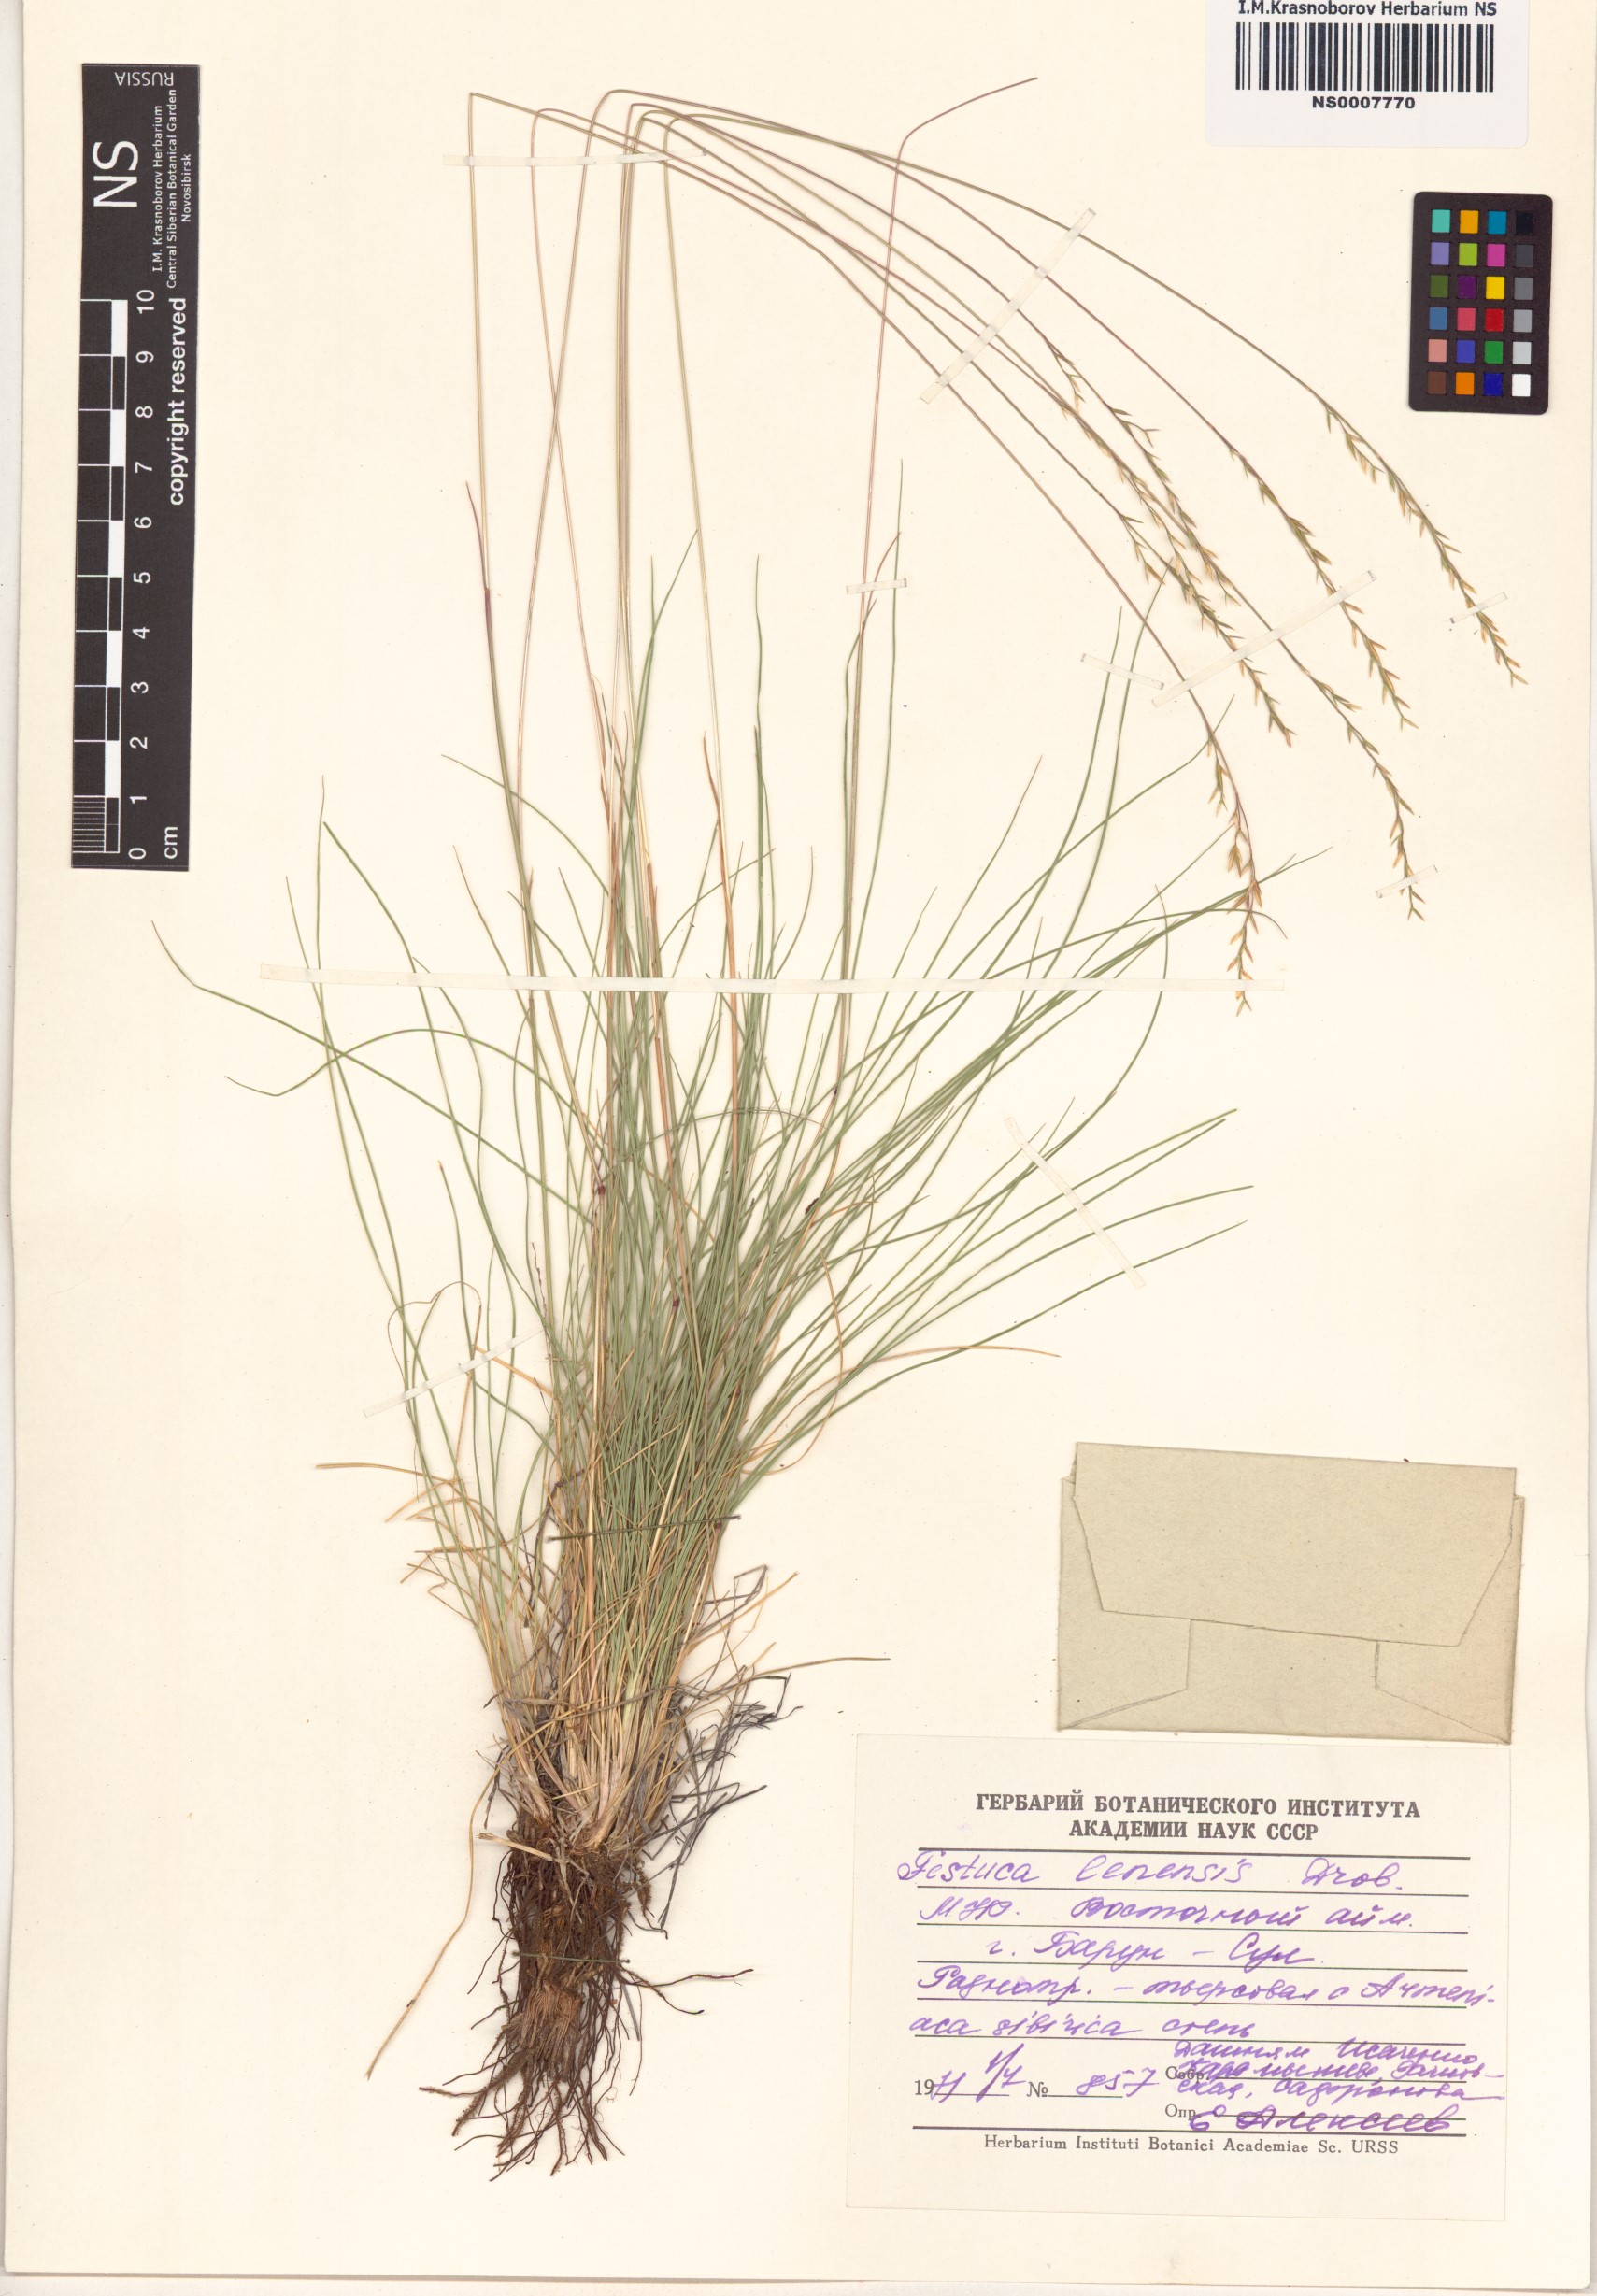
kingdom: Plantae
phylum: Tracheophyta
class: Liliopsida
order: Poales
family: Poaceae
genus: Festuca
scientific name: Festuca lenensis
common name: Lena river fescue
